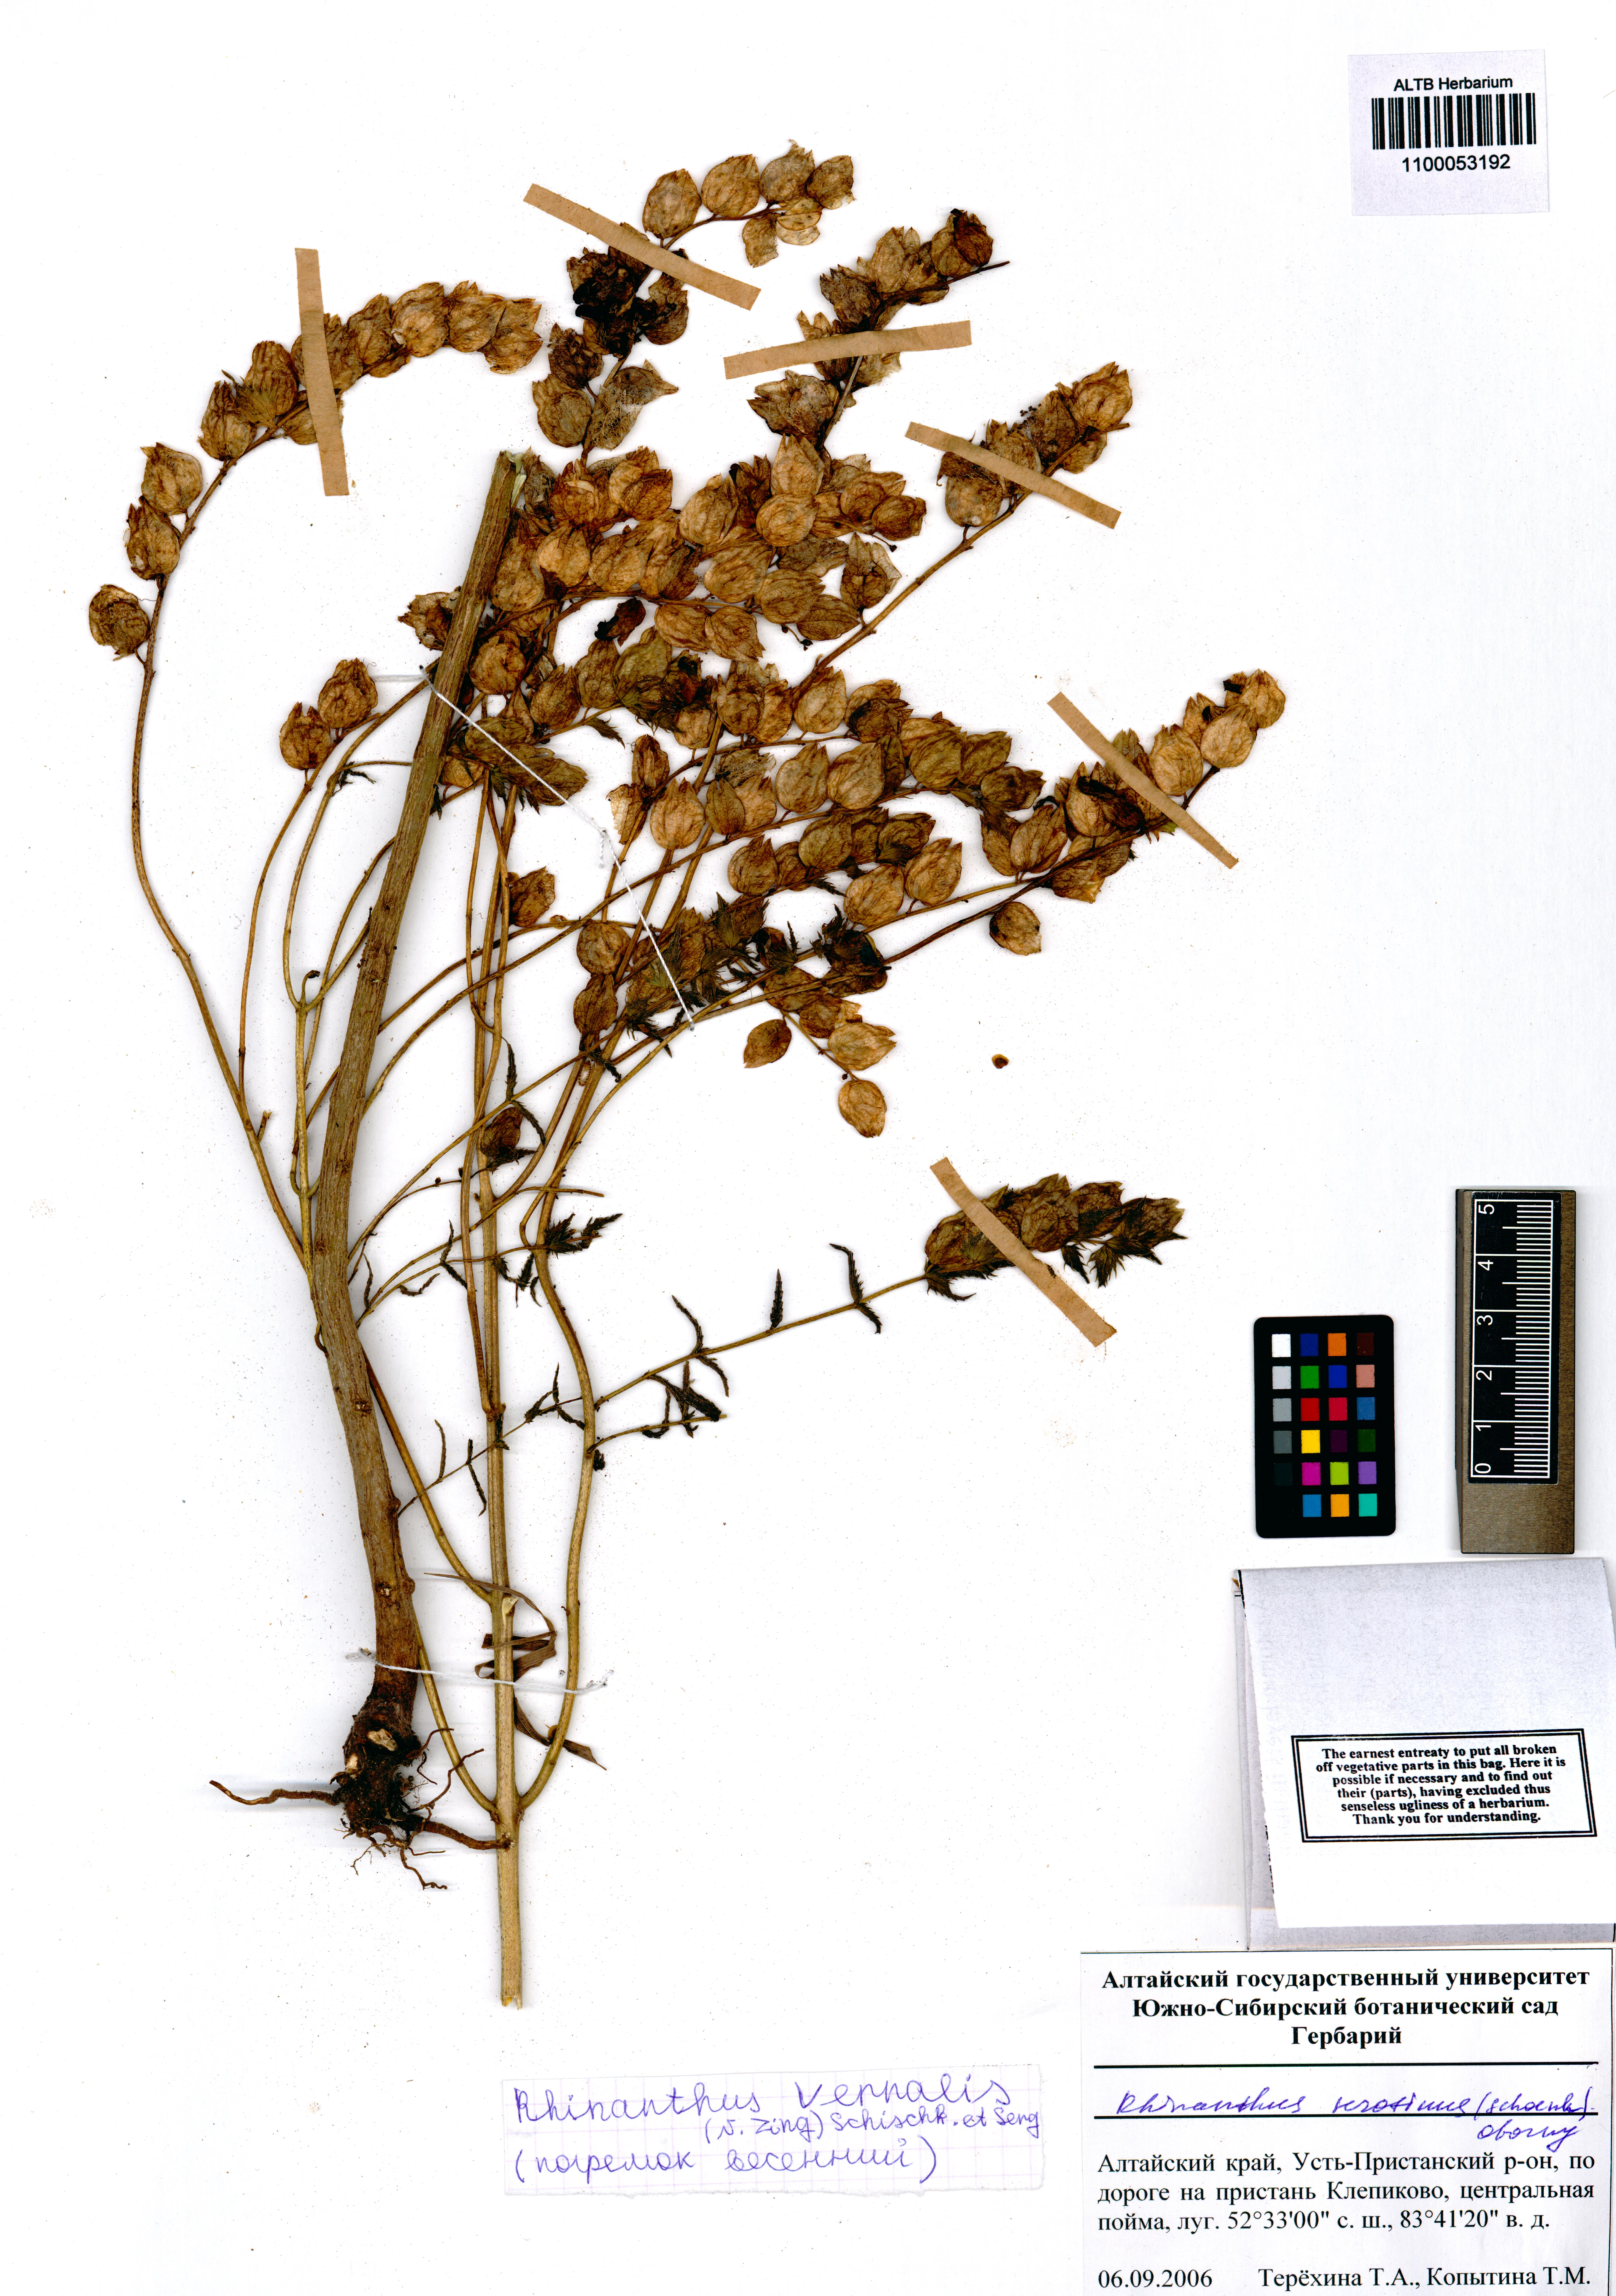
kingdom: Plantae
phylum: Tracheophyta
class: Magnoliopsida
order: Lamiales
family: Orobanchaceae
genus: Rhinanthus
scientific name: Rhinanthus serotinus
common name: Late-flowering yellow rattle
